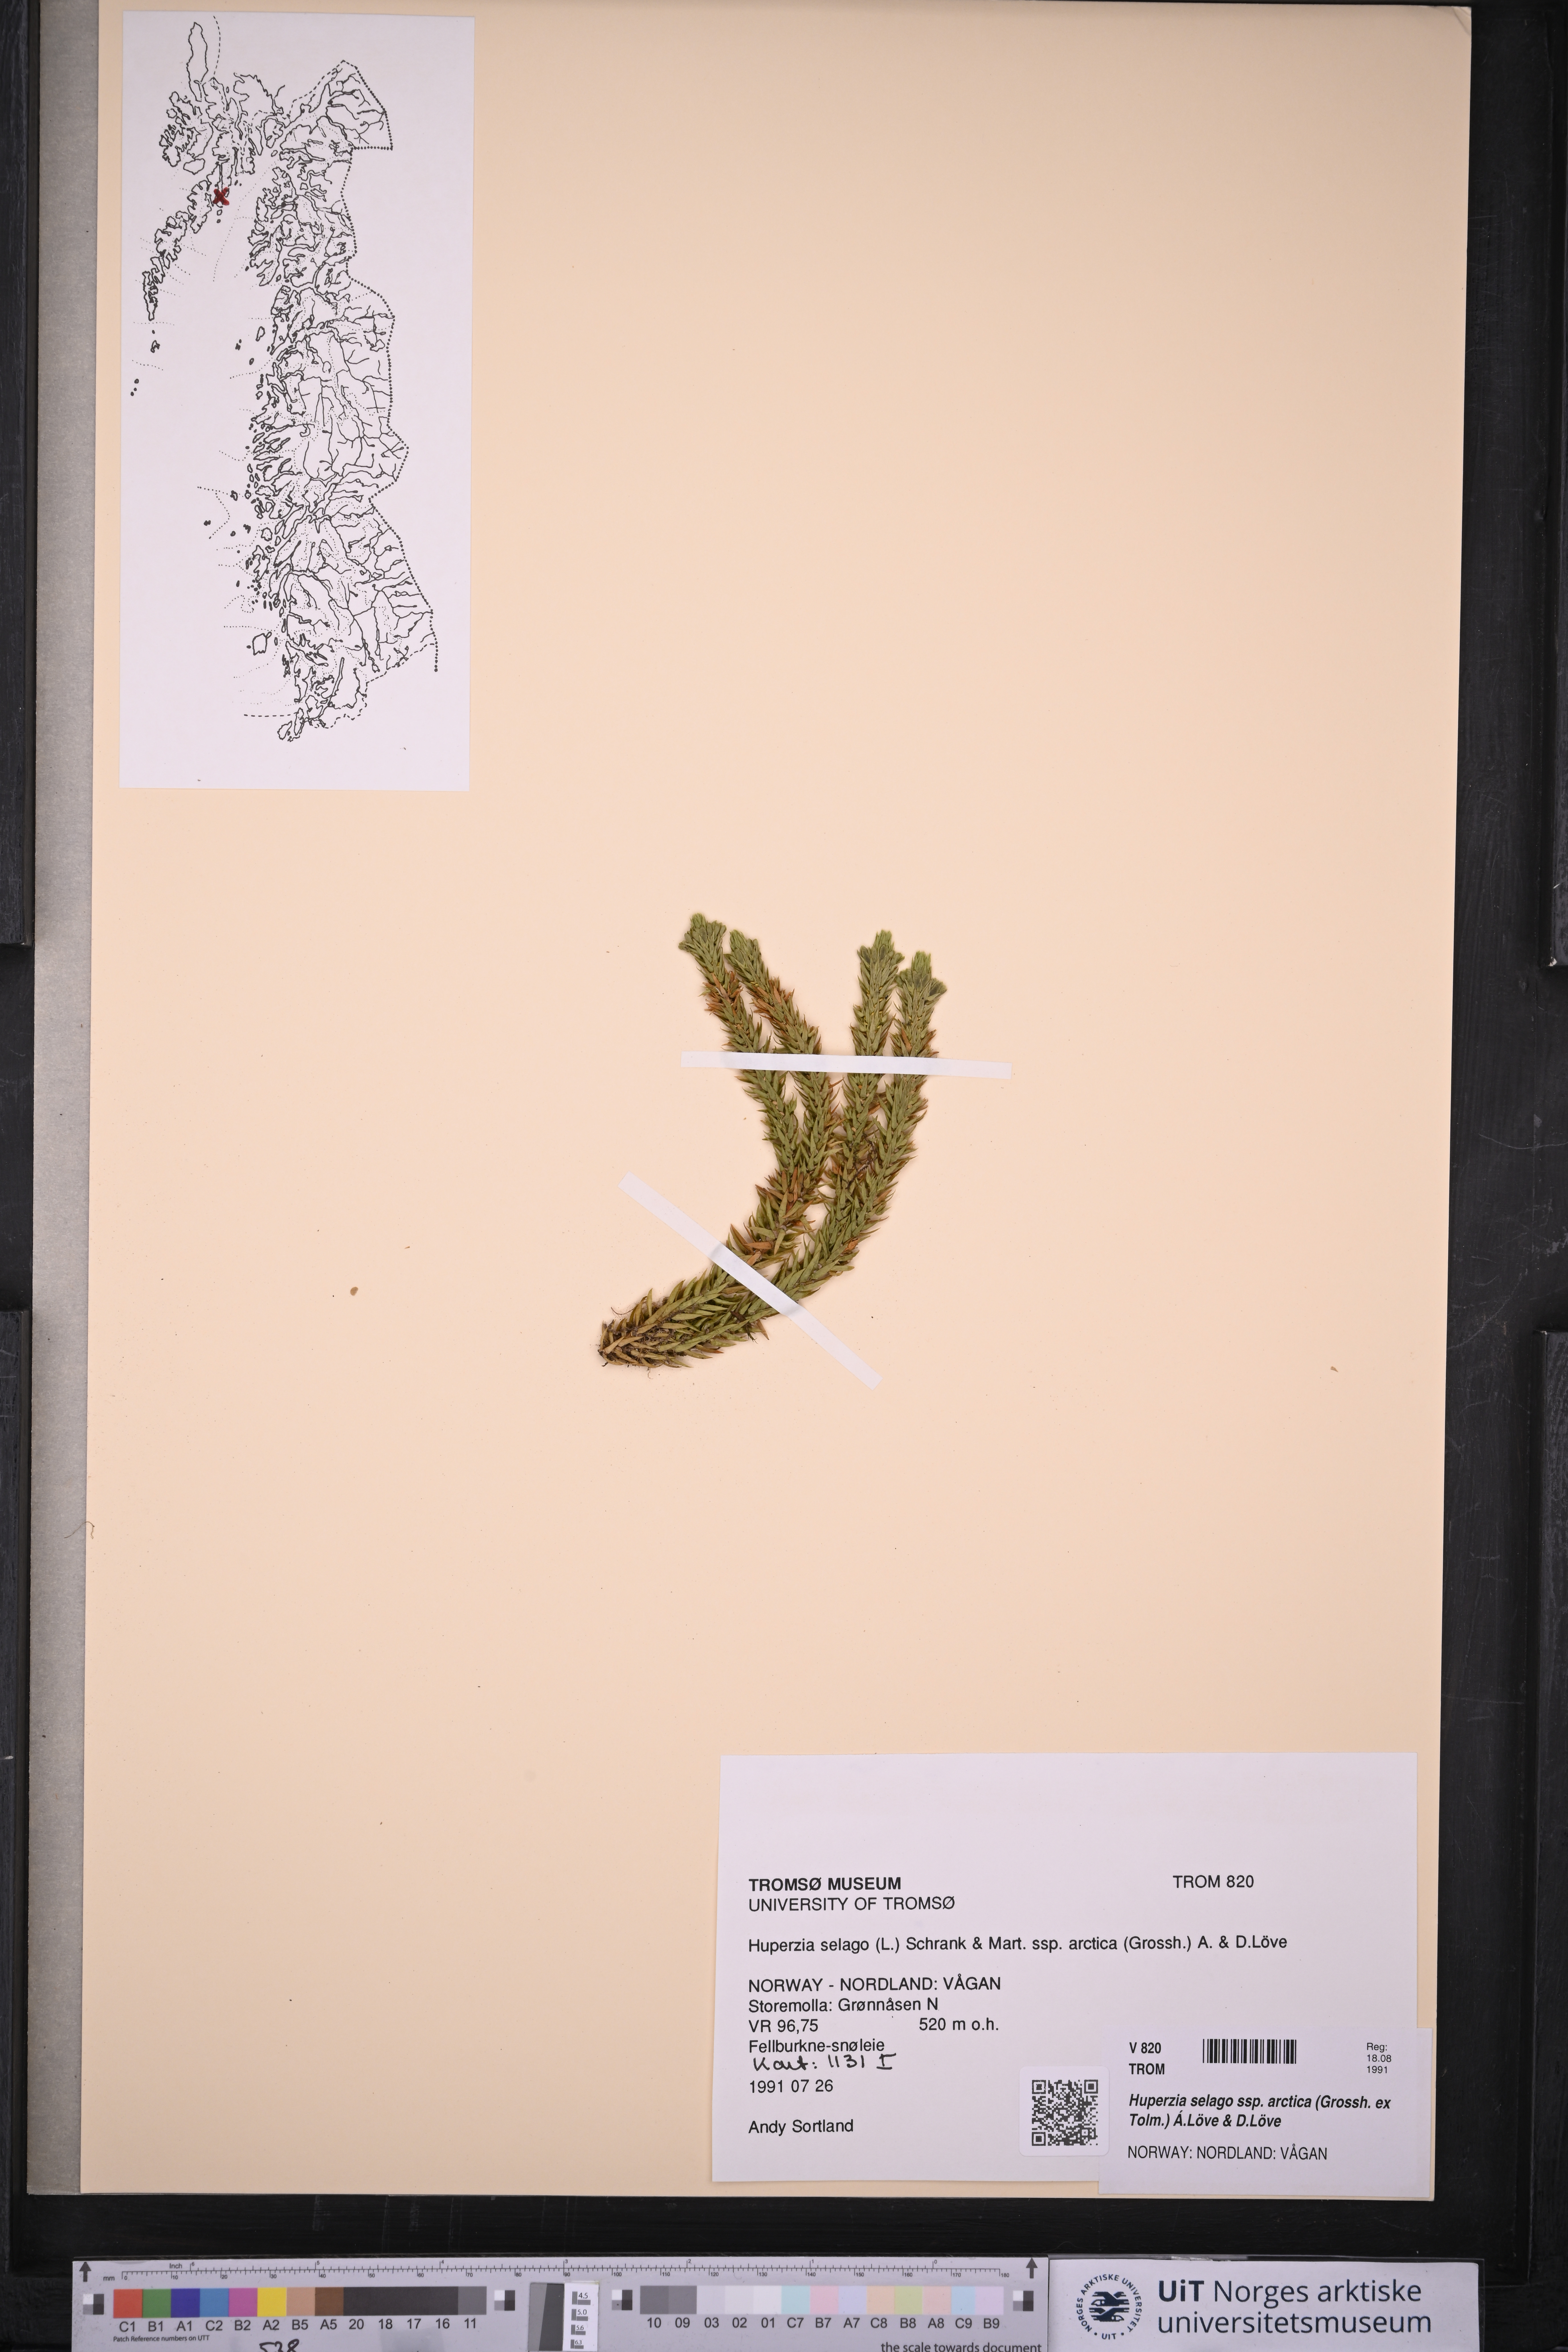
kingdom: Plantae
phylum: Tracheophyta
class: Lycopodiopsida
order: Lycopodiales
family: Lycopodiaceae
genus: Huperzia
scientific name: Huperzia selago
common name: Northern firmoss
